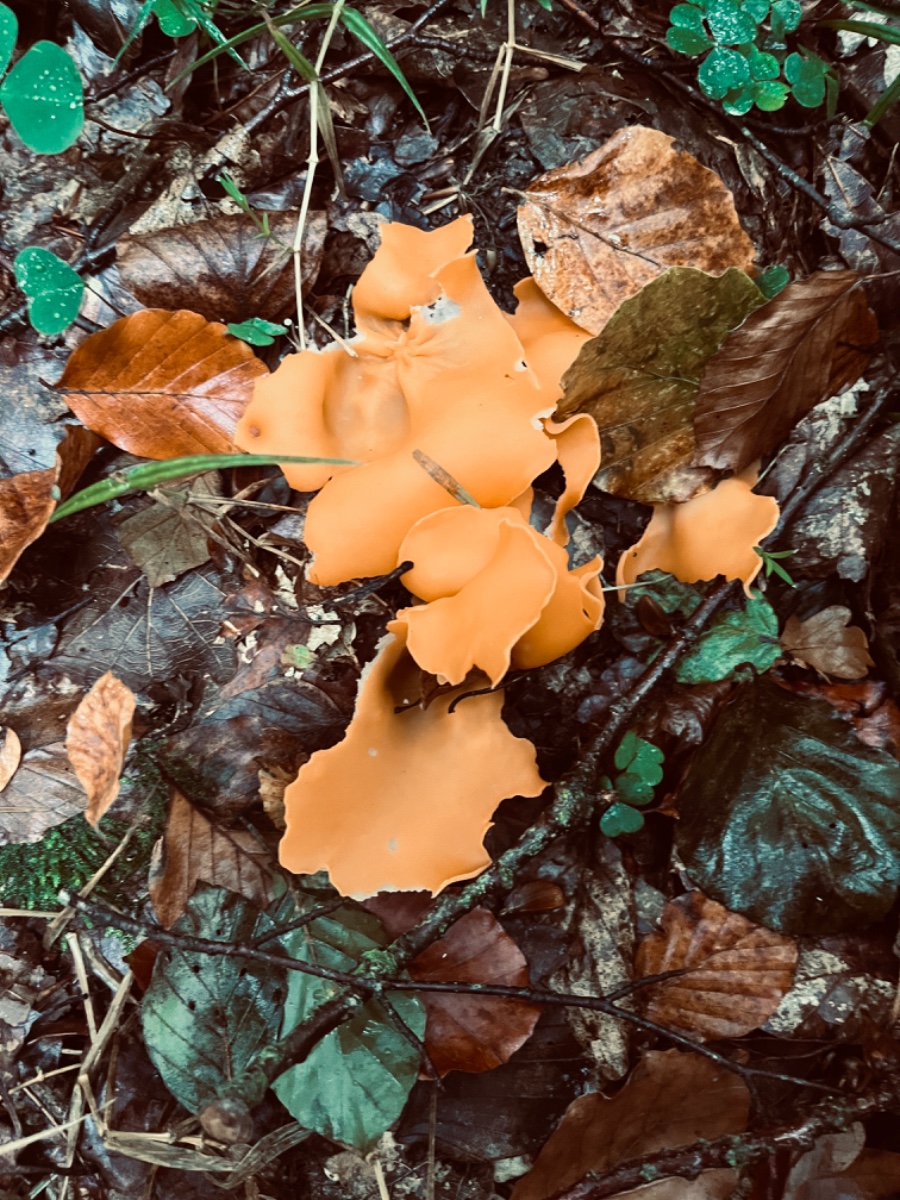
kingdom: Fungi
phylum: Ascomycota
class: Pezizomycetes
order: Pezizales
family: Pyronemataceae
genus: Aleuria
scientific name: Aleuria aurantia
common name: almindelig orangebæger
